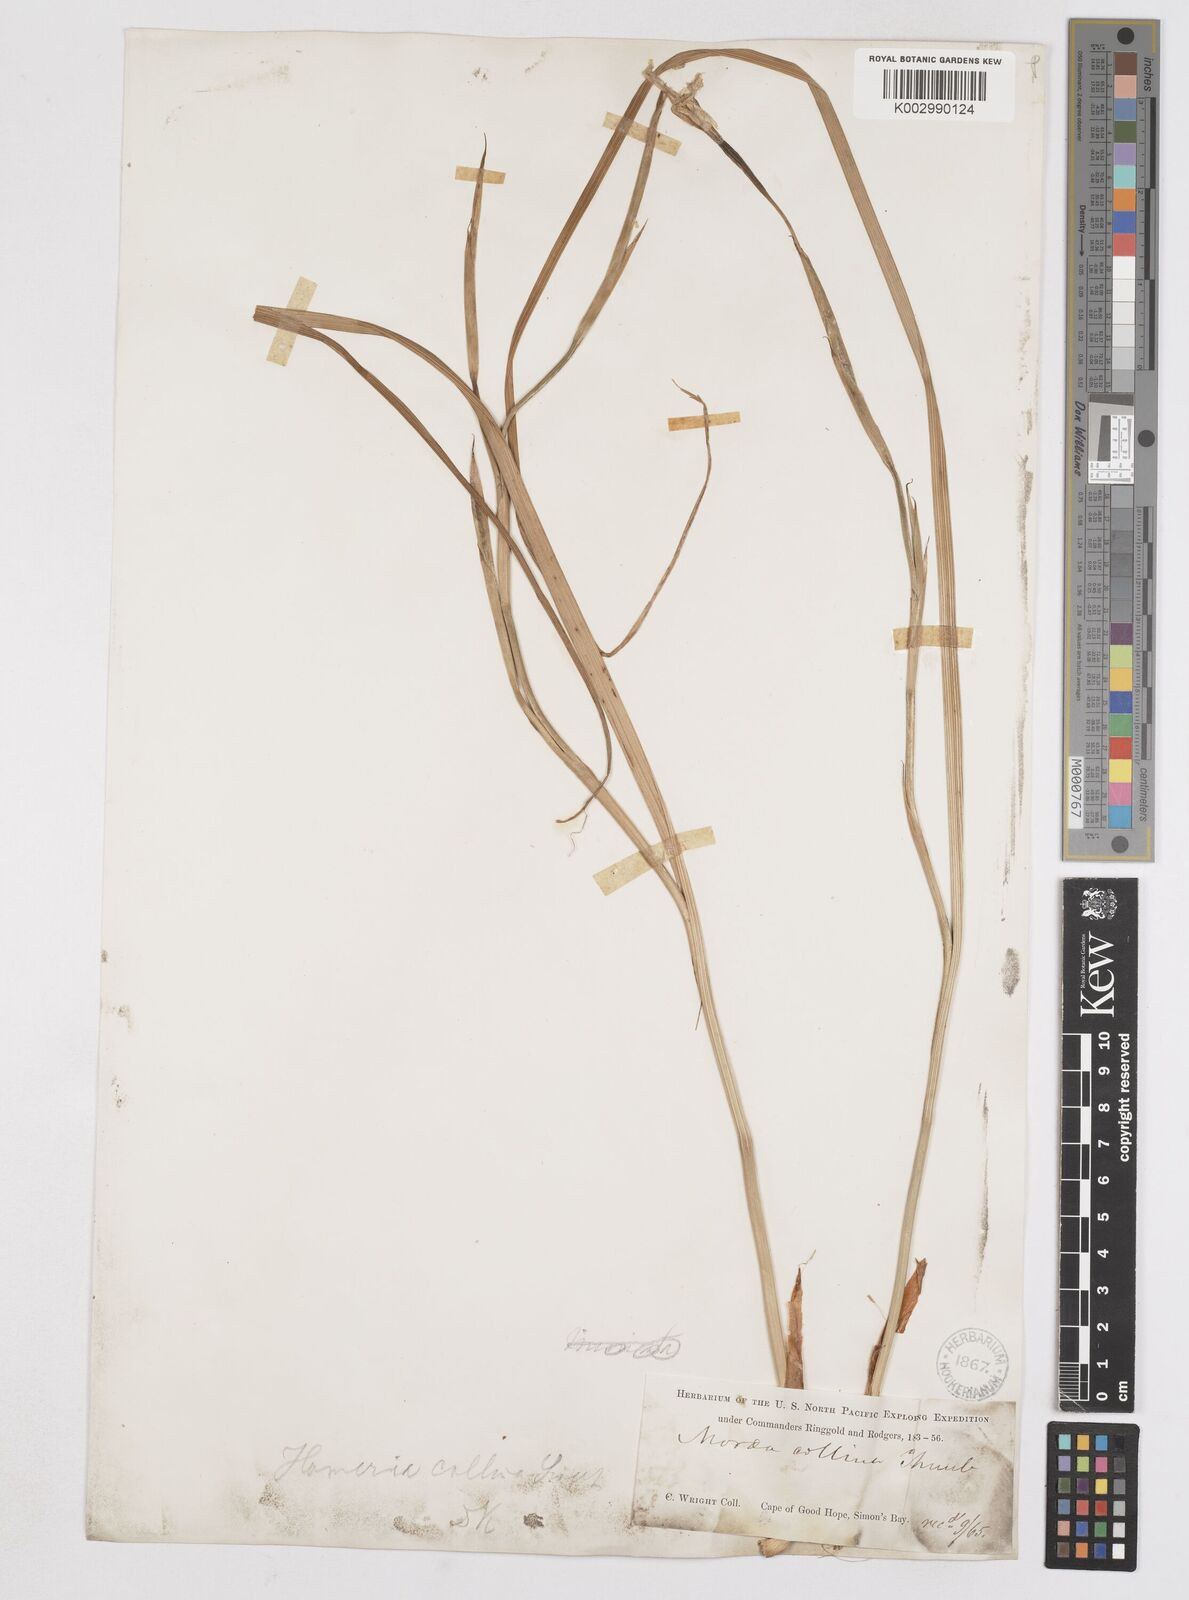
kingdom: Plantae
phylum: Tracheophyta
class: Liliopsida
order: Asparagales
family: Iridaceae
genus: Moraea
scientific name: Moraea flaccida
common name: One-leaf cape-tulip
